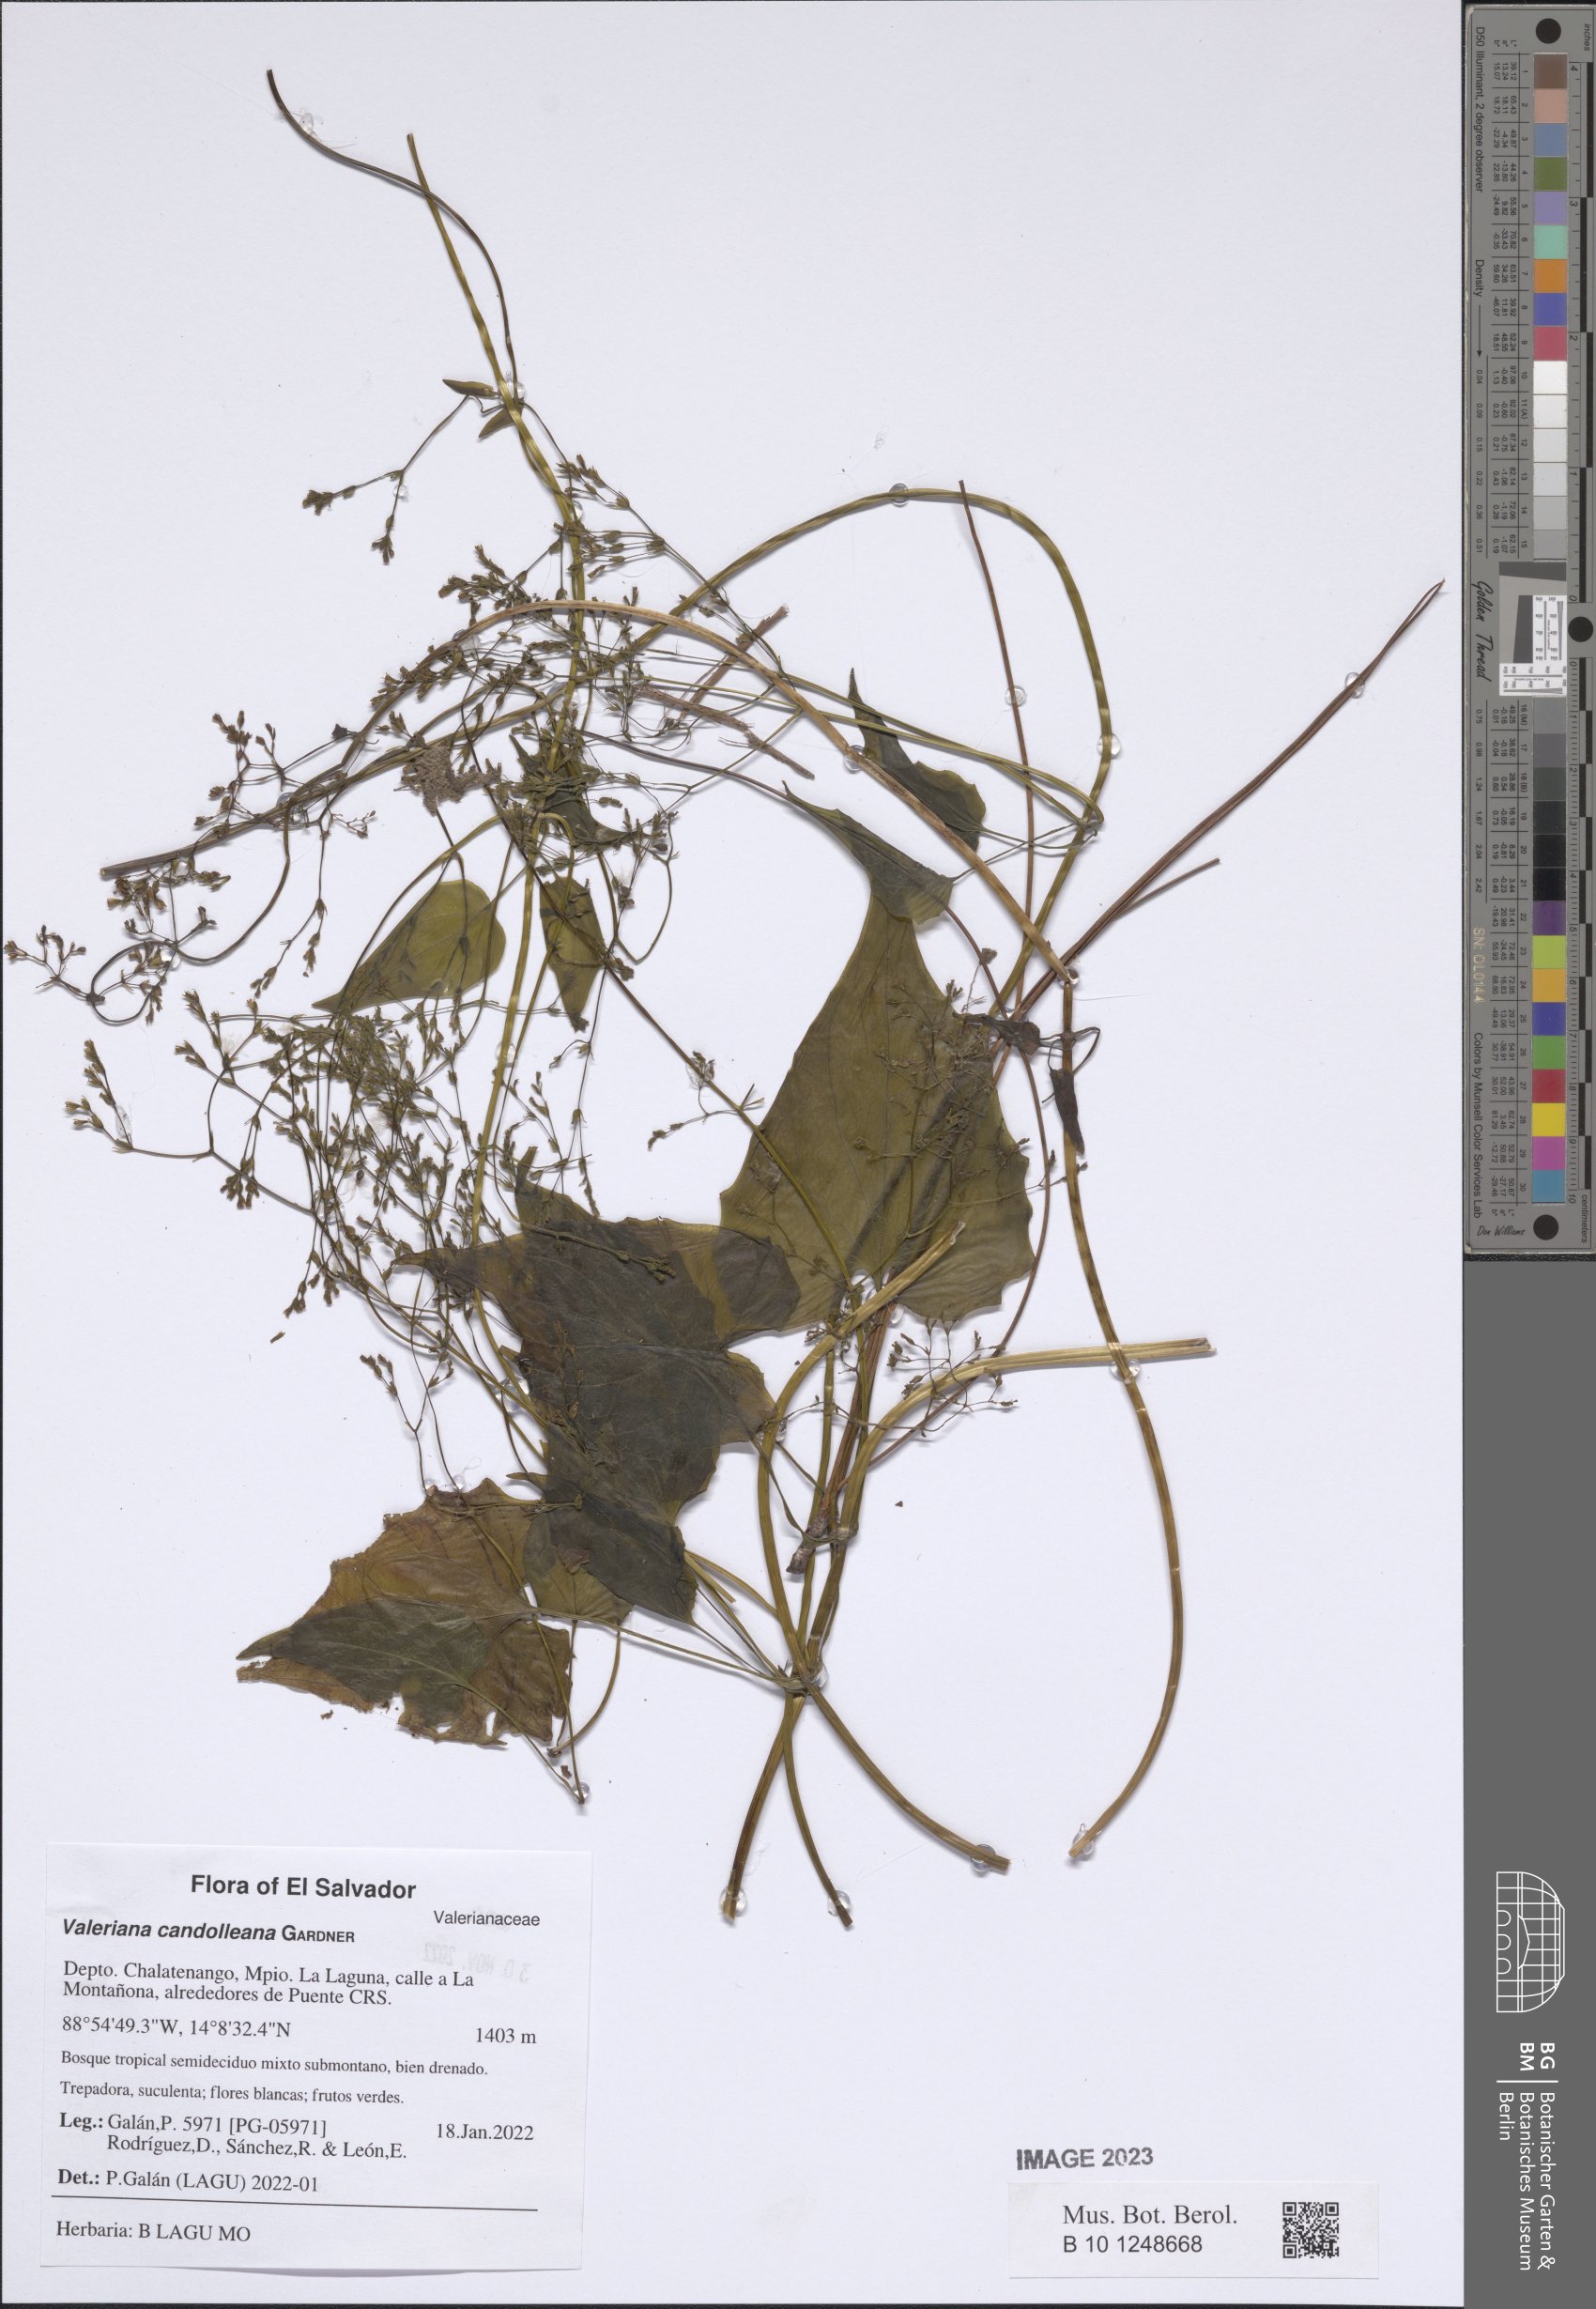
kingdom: Plantae
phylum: Tracheophyta
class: Magnoliopsida
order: Dipsacales
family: Caprifoliaceae
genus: Valeriana
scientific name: Valeriana candolleana
